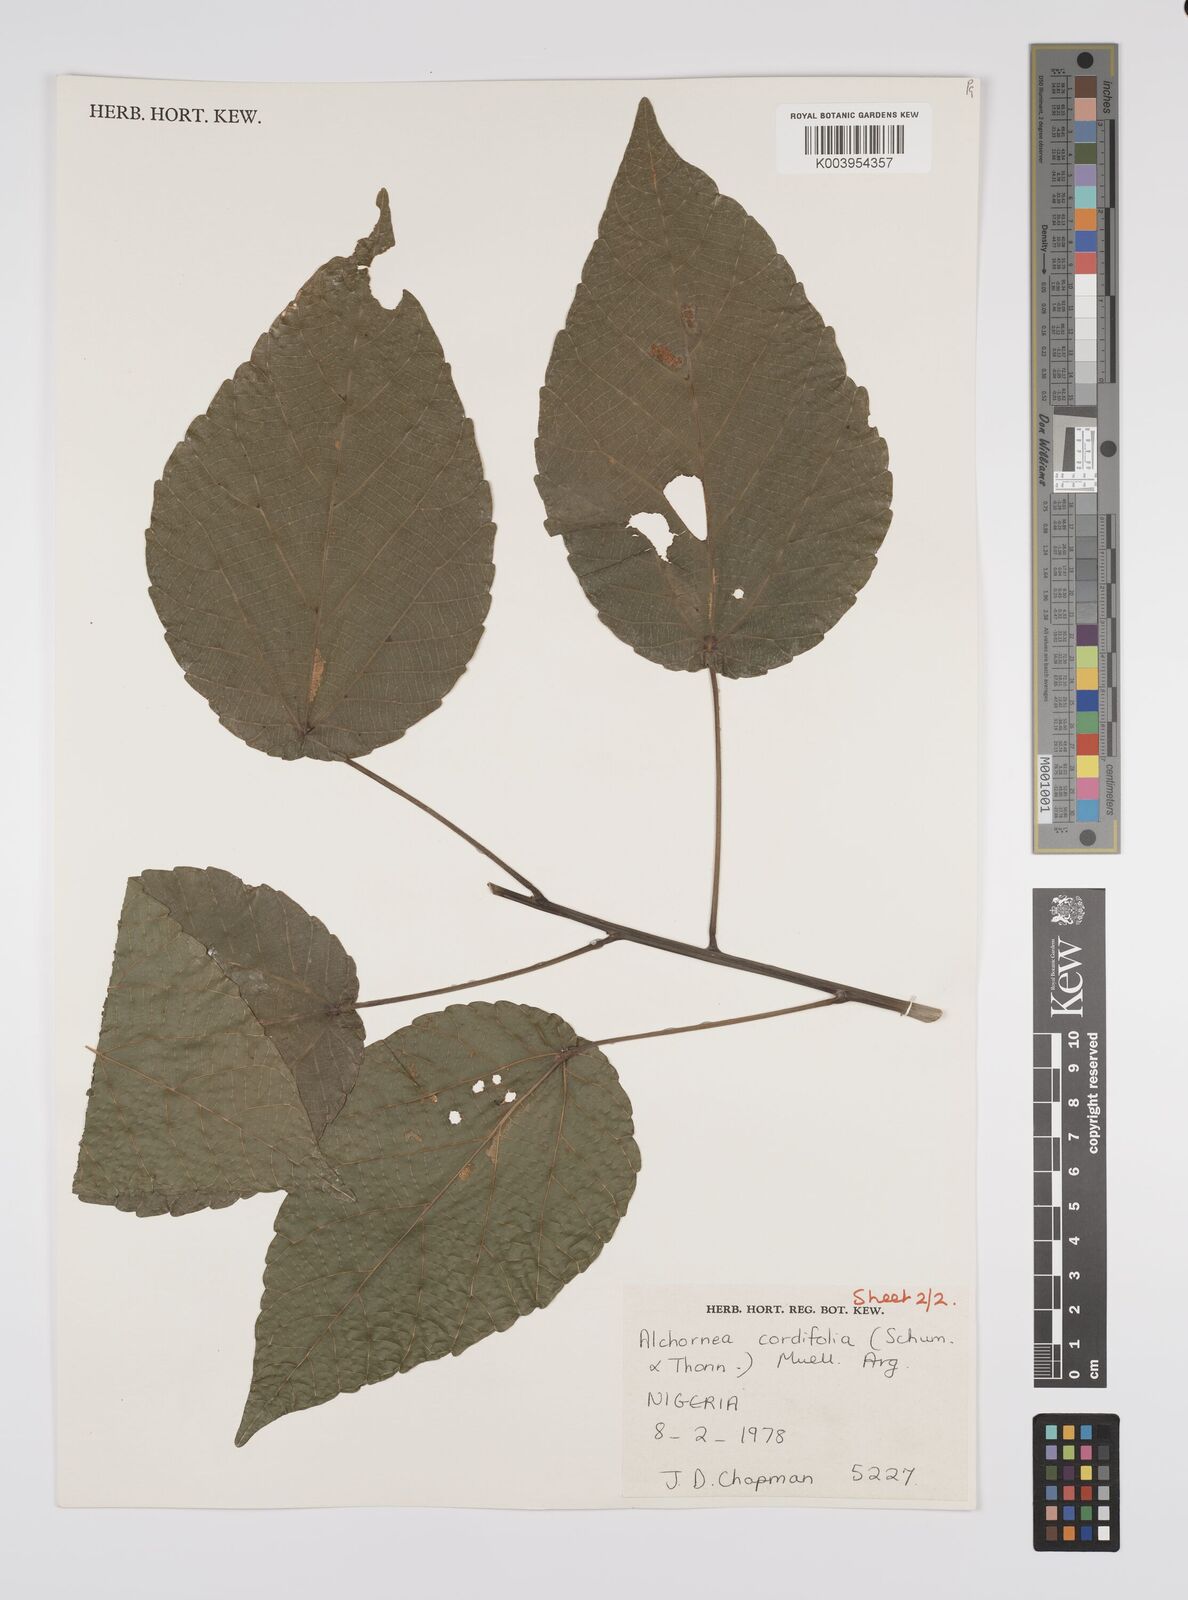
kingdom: Plantae
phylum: Tracheophyta
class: Magnoliopsida
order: Malpighiales
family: Euphorbiaceae
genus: Alchornea
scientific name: Alchornea cordifolia
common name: Christmasbush
